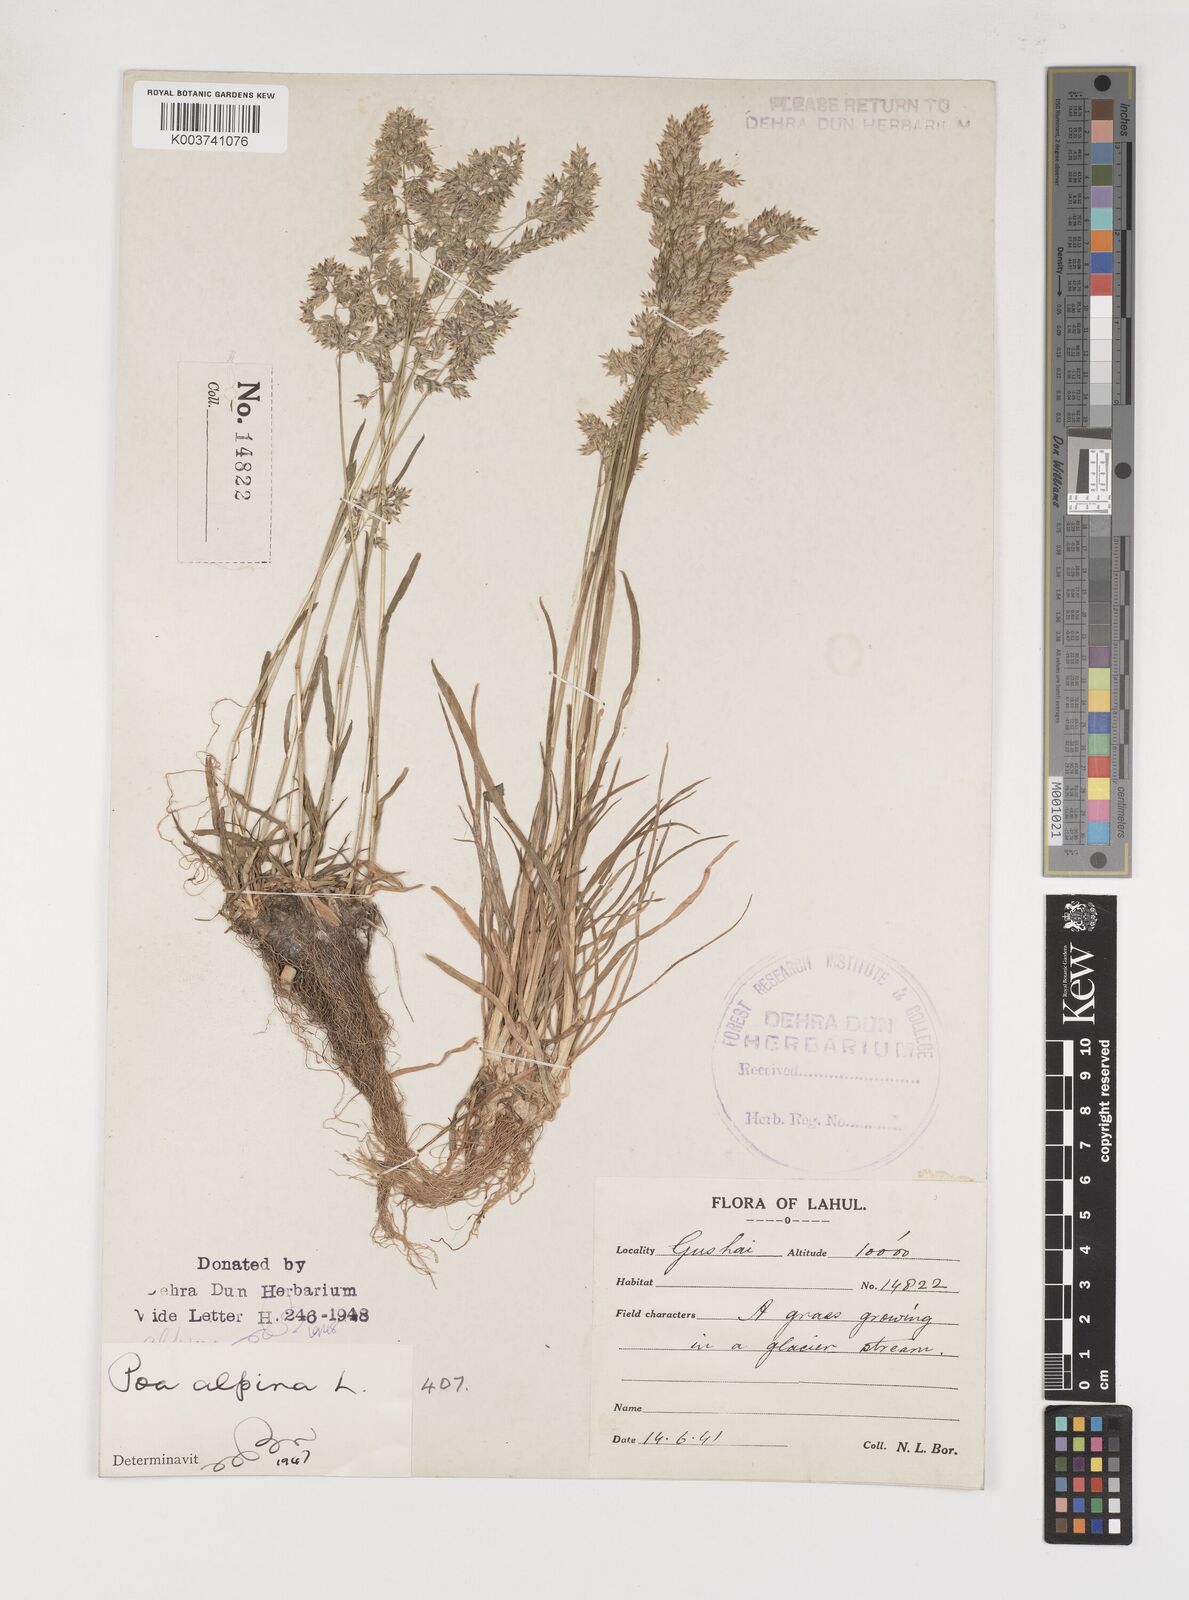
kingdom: Plantae
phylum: Tracheophyta
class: Liliopsida
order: Poales
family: Poaceae
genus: Poa
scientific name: Poa alpina
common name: Alpine bluegrass
